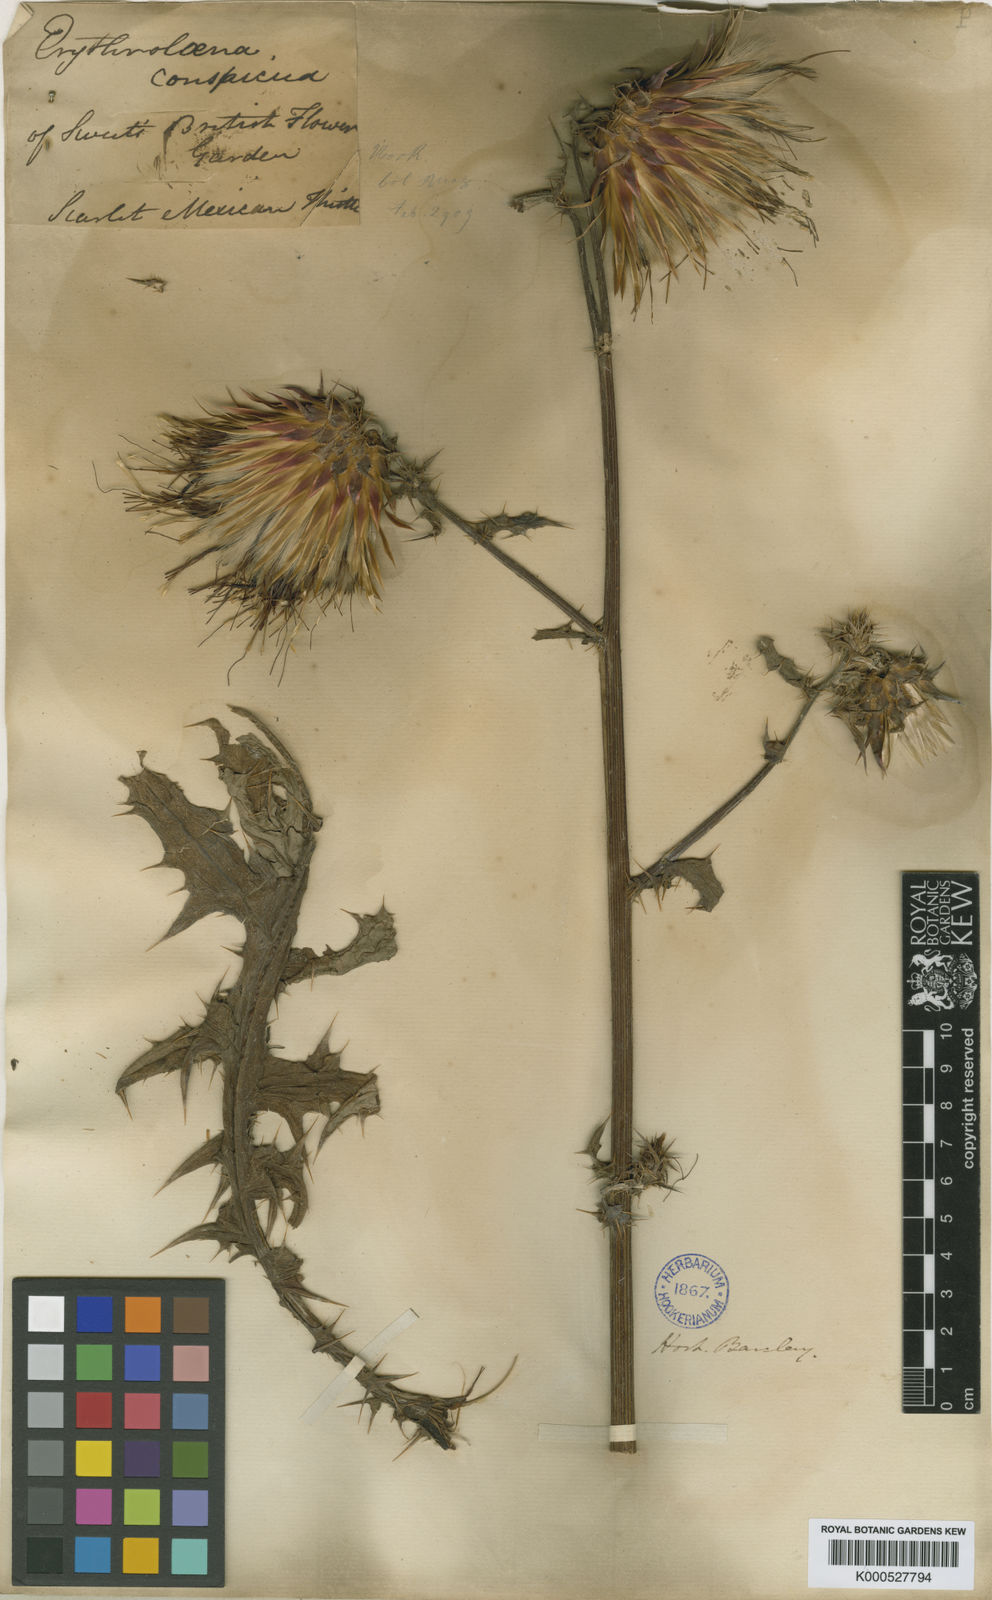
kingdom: Plantae
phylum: Tracheophyta
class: Magnoliopsida
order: Asterales
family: Asteraceae
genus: Cirsium
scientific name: Cirsium conspicuum
